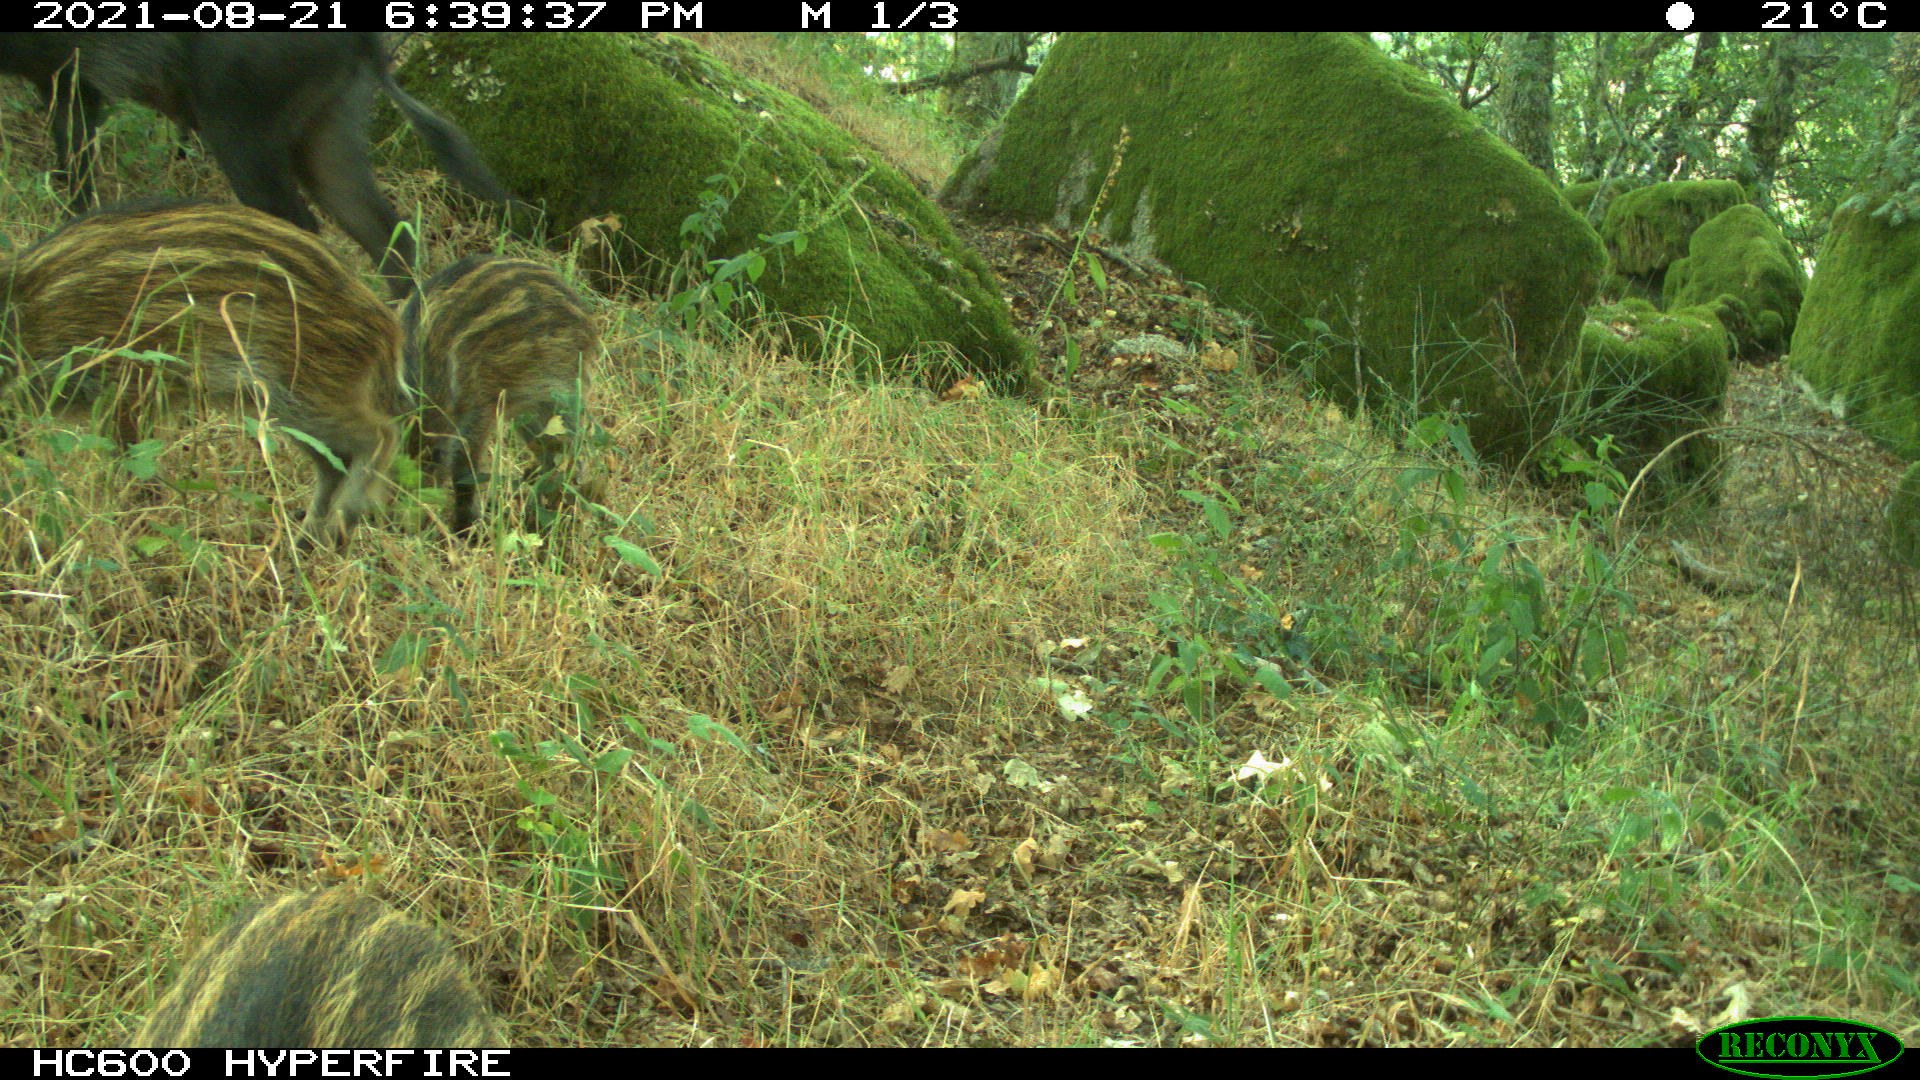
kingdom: Animalia
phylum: Chordata
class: Mammalia
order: Artiodactyla
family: Suidae
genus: Sus
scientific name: Sus scrofa
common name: Wild boar
